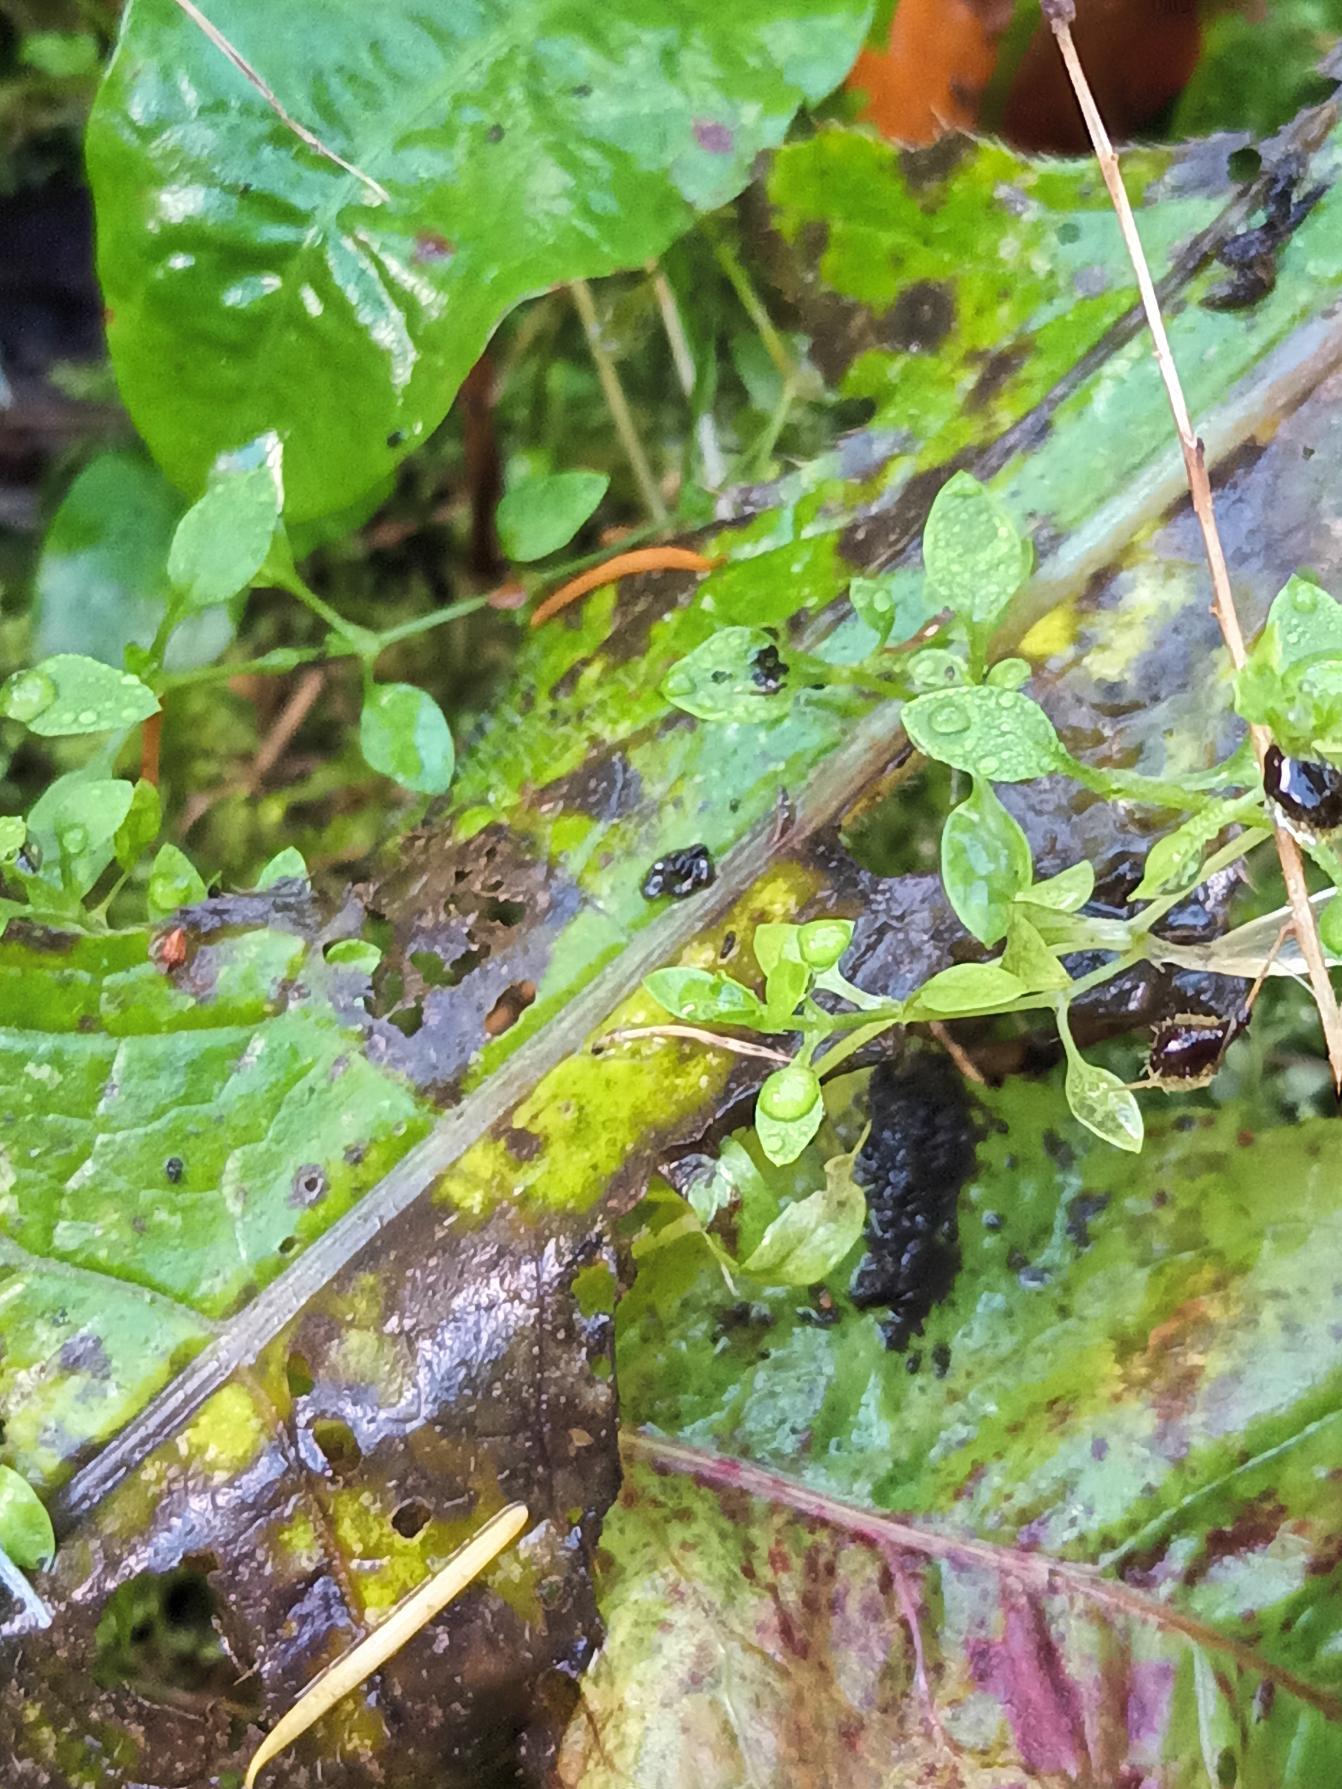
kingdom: Plantae
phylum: Tracheophyta
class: Magnoliopsida
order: Caryophyllales
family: Caryophyllaceae
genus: Stellaria
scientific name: Stellaria alsine
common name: Sump-fladstjerne
